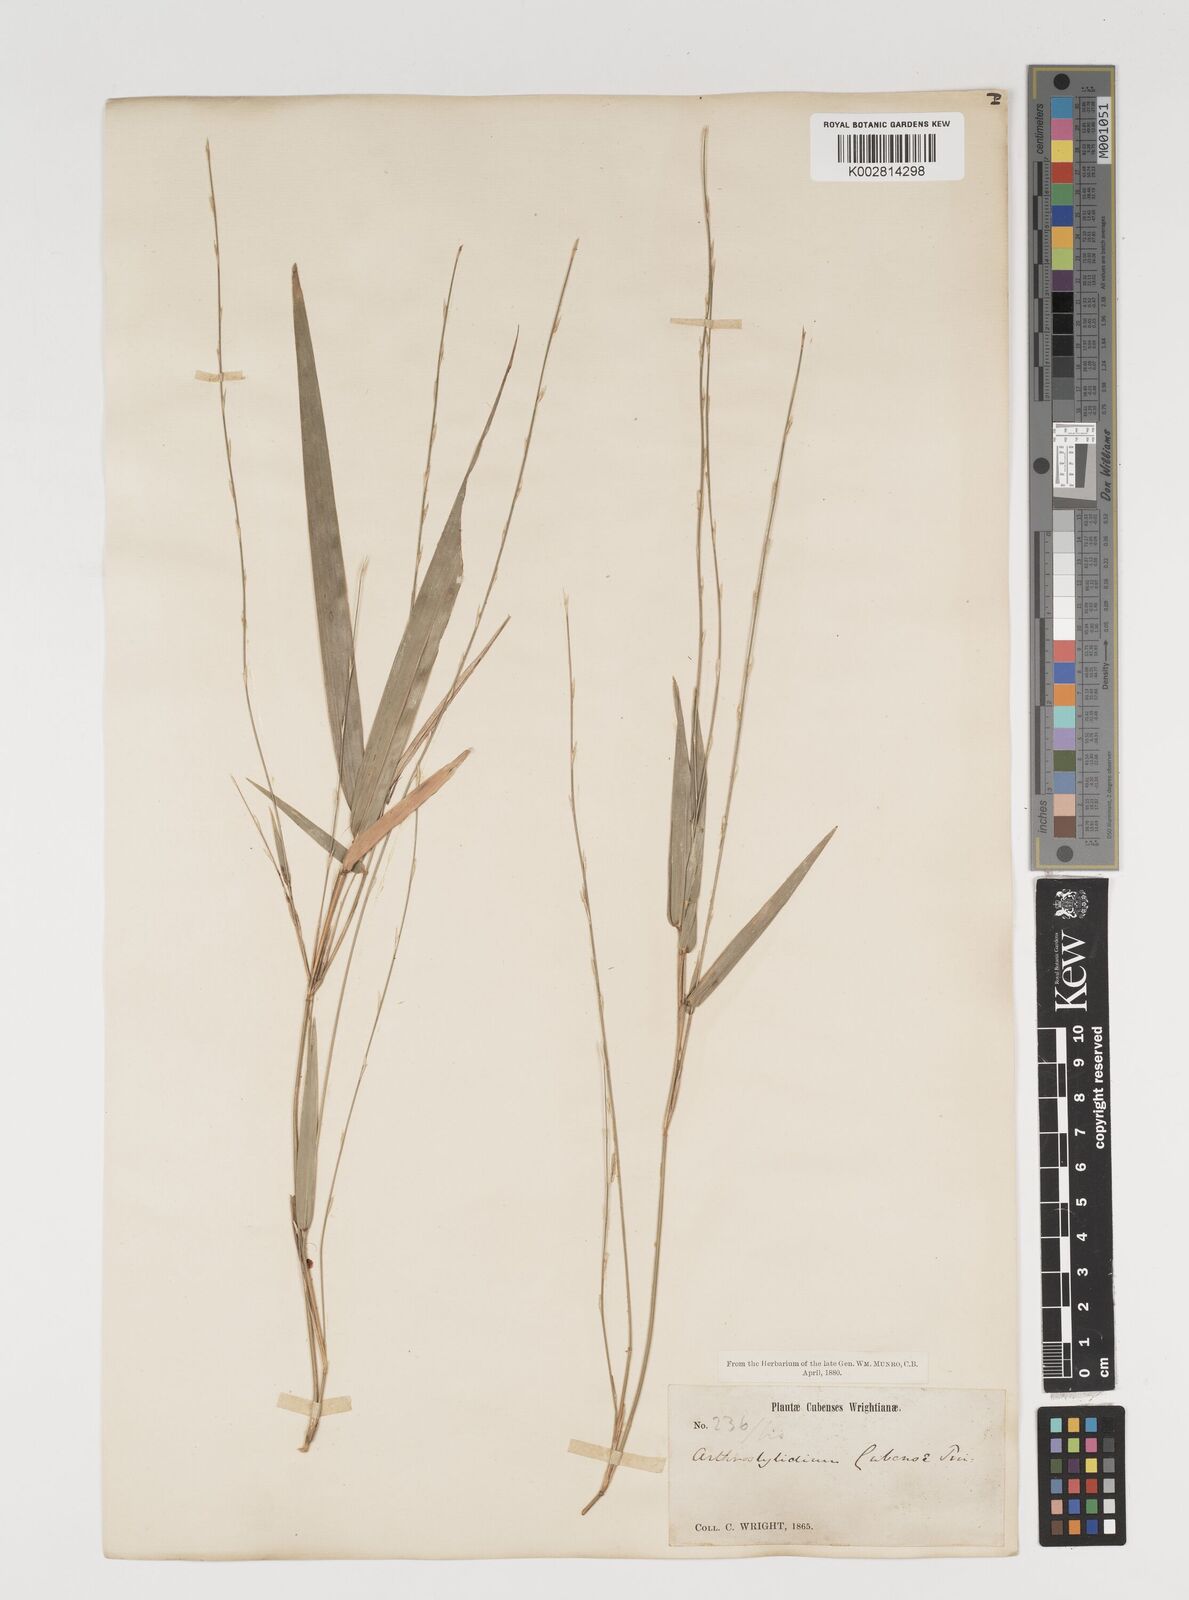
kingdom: Plantae
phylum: Tracheophyta
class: Liliopsida
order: Poales
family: Poaceae
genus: Arthrostylidium
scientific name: Arthrostylidium cubense
